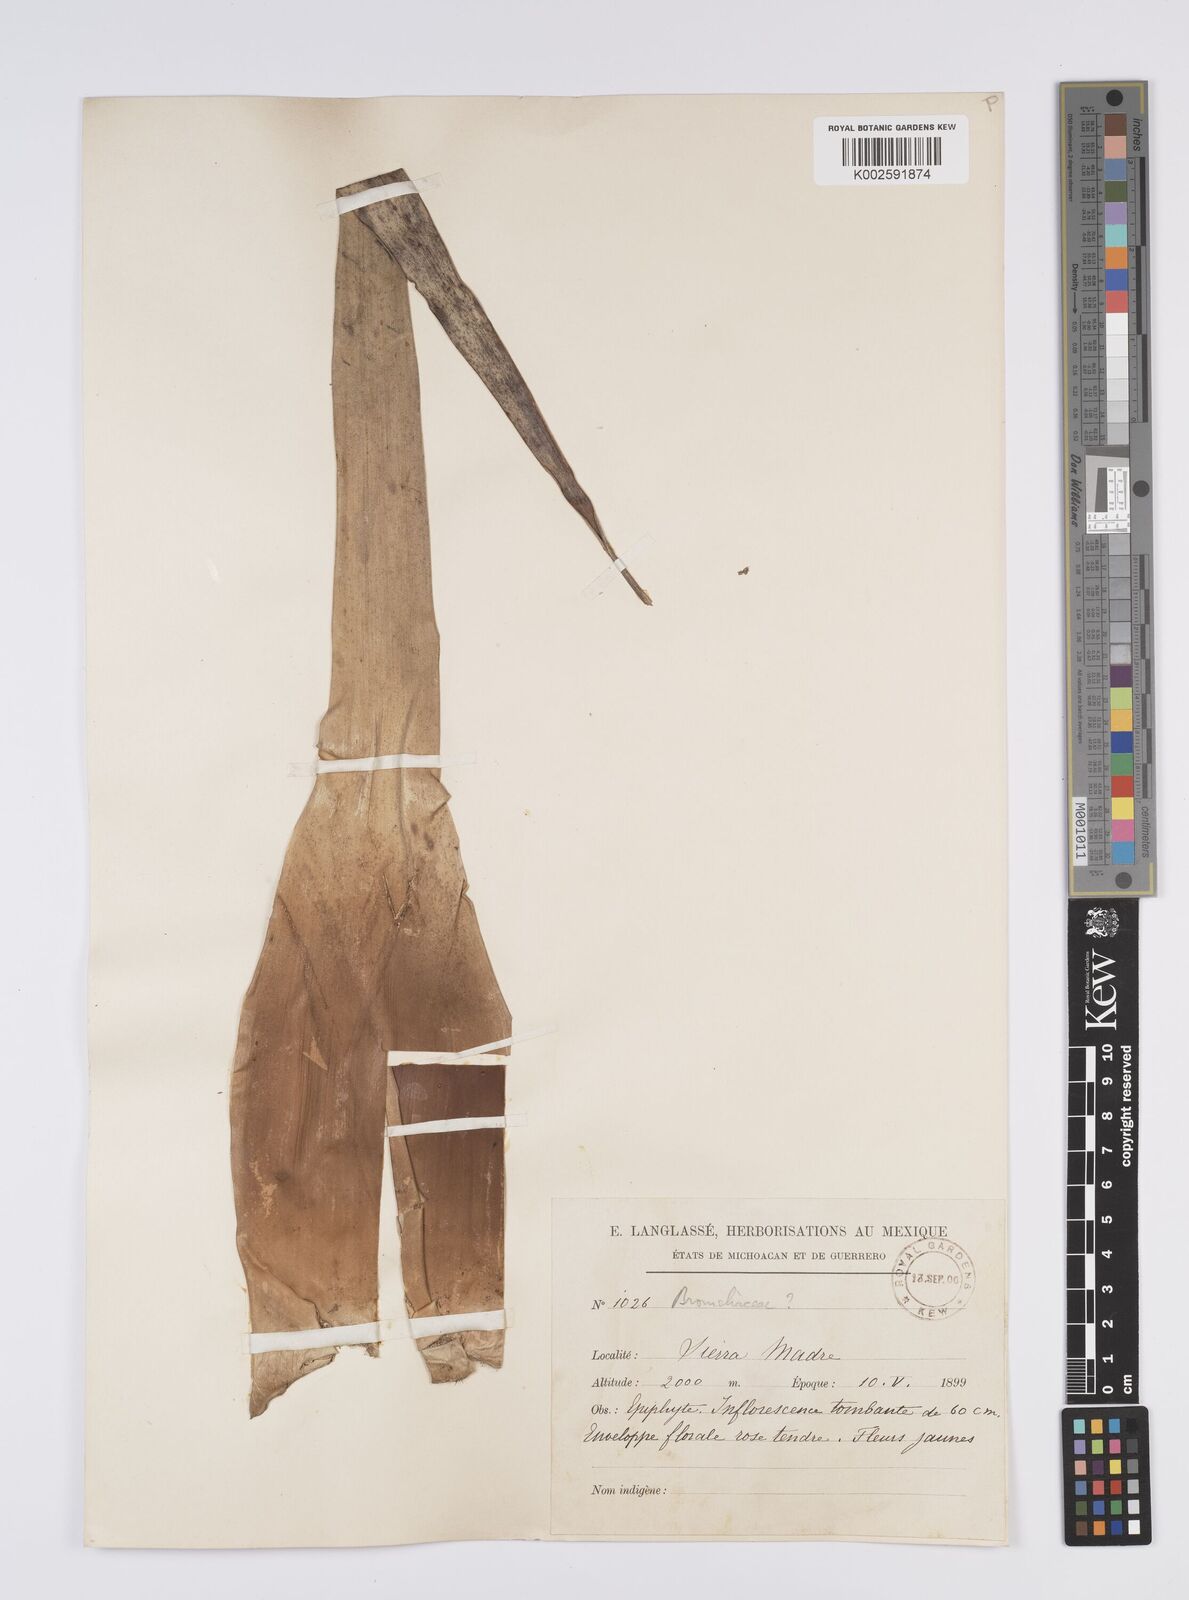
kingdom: Plantae
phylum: Tracheophyta
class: Liliopsida
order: Poales
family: Bromeliaceae
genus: Aechmea
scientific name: Aechmea
